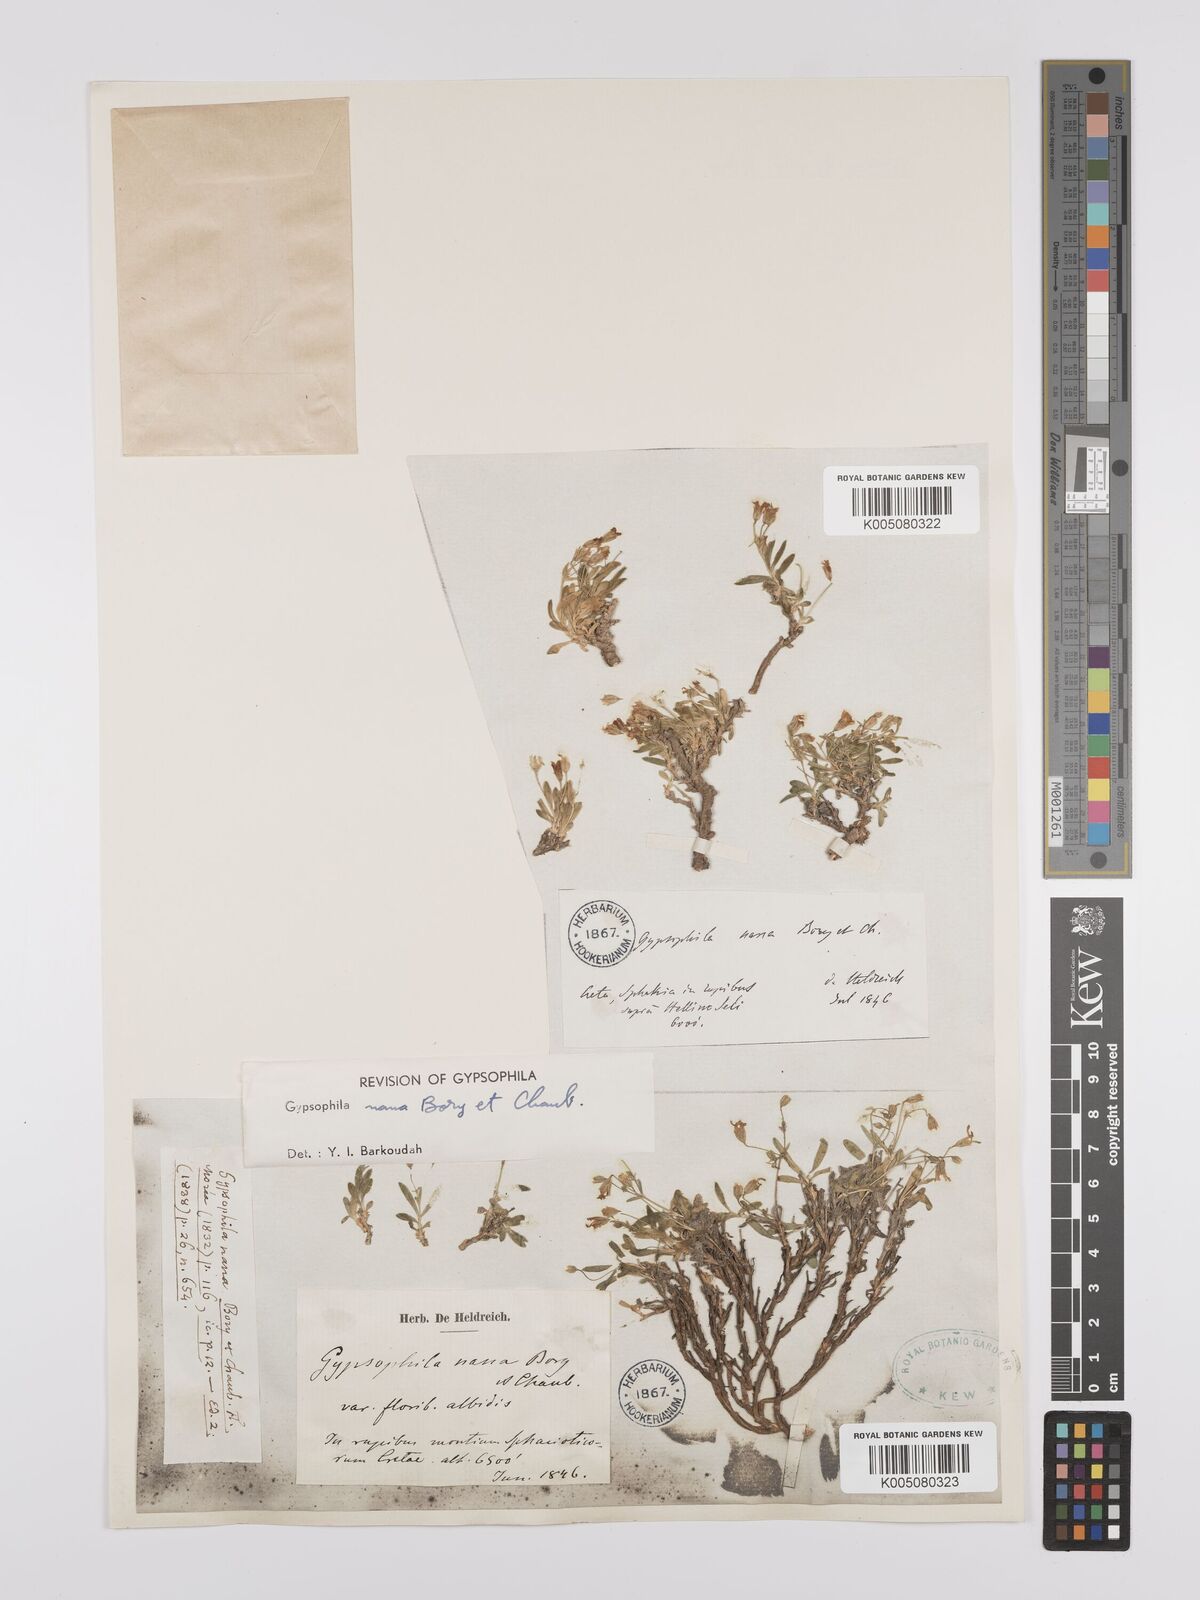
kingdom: Plantae
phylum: Tracheophyta
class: Magnoliopsida
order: Caryophyllales
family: Caryophyllaceae
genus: Gypsophila
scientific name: Gypsophila nana
